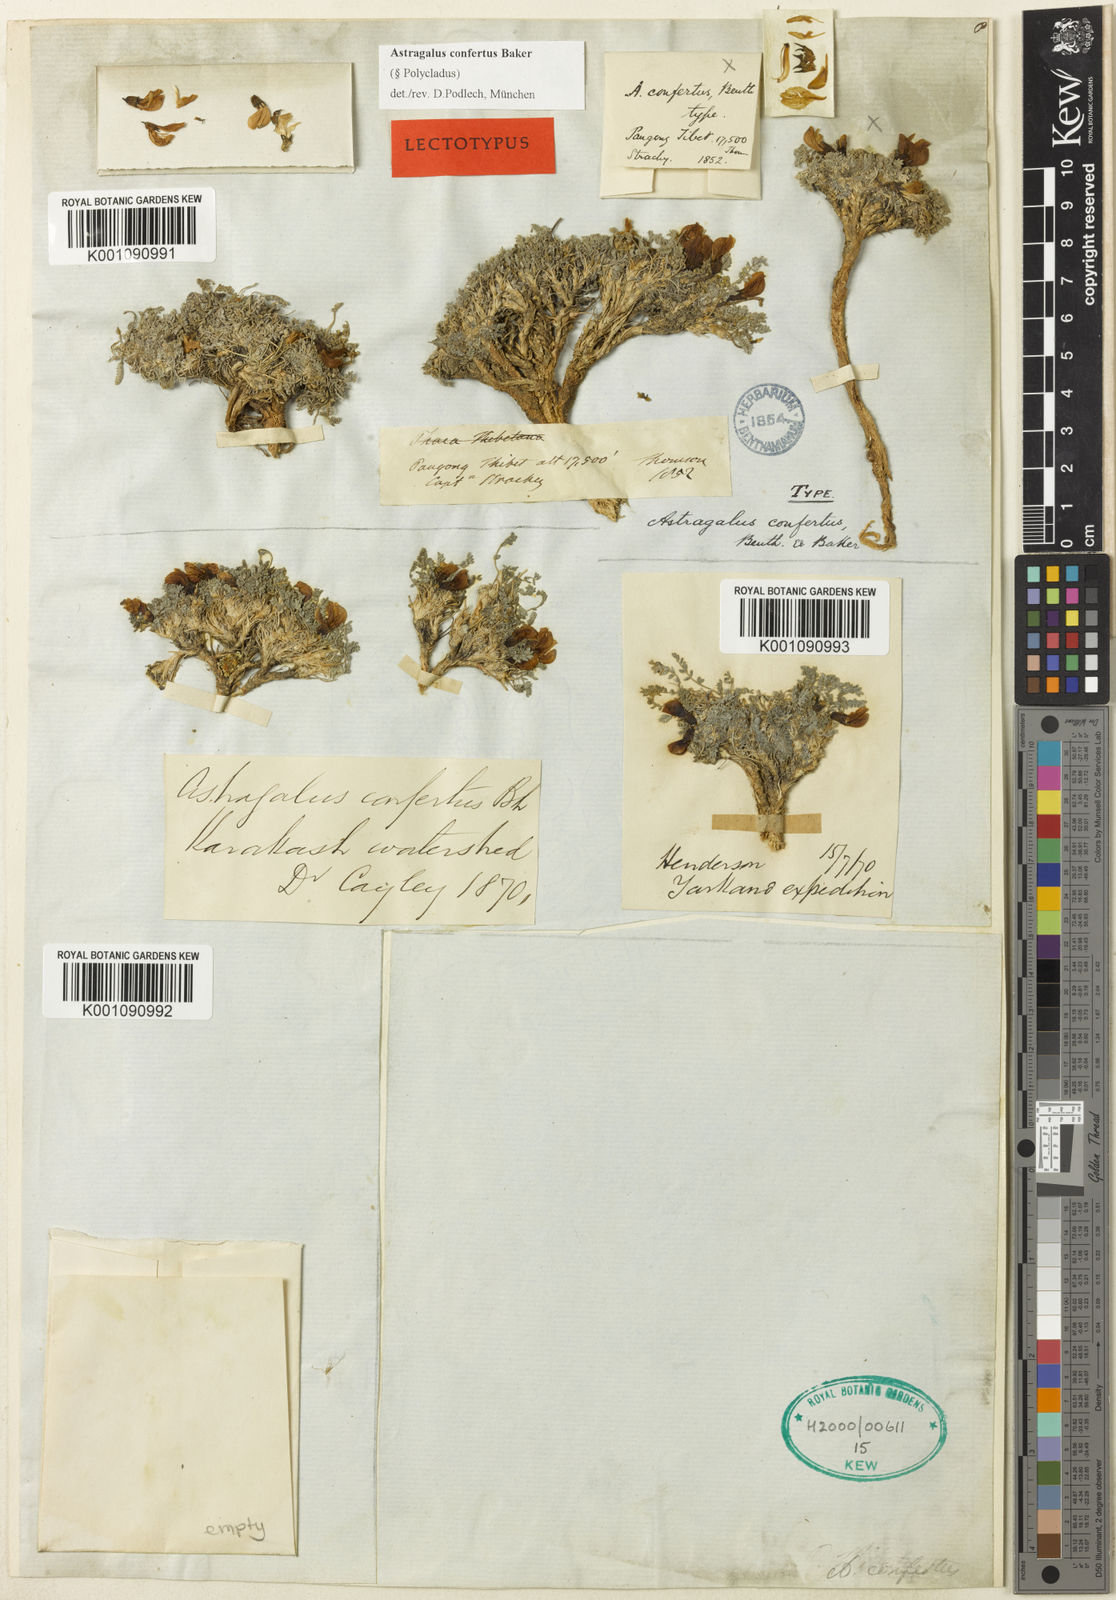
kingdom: Plantae
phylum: Tracheophyta
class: Magnoliopsida
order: Fabales
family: Fabaceae
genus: Astragalus
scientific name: Astragalus
